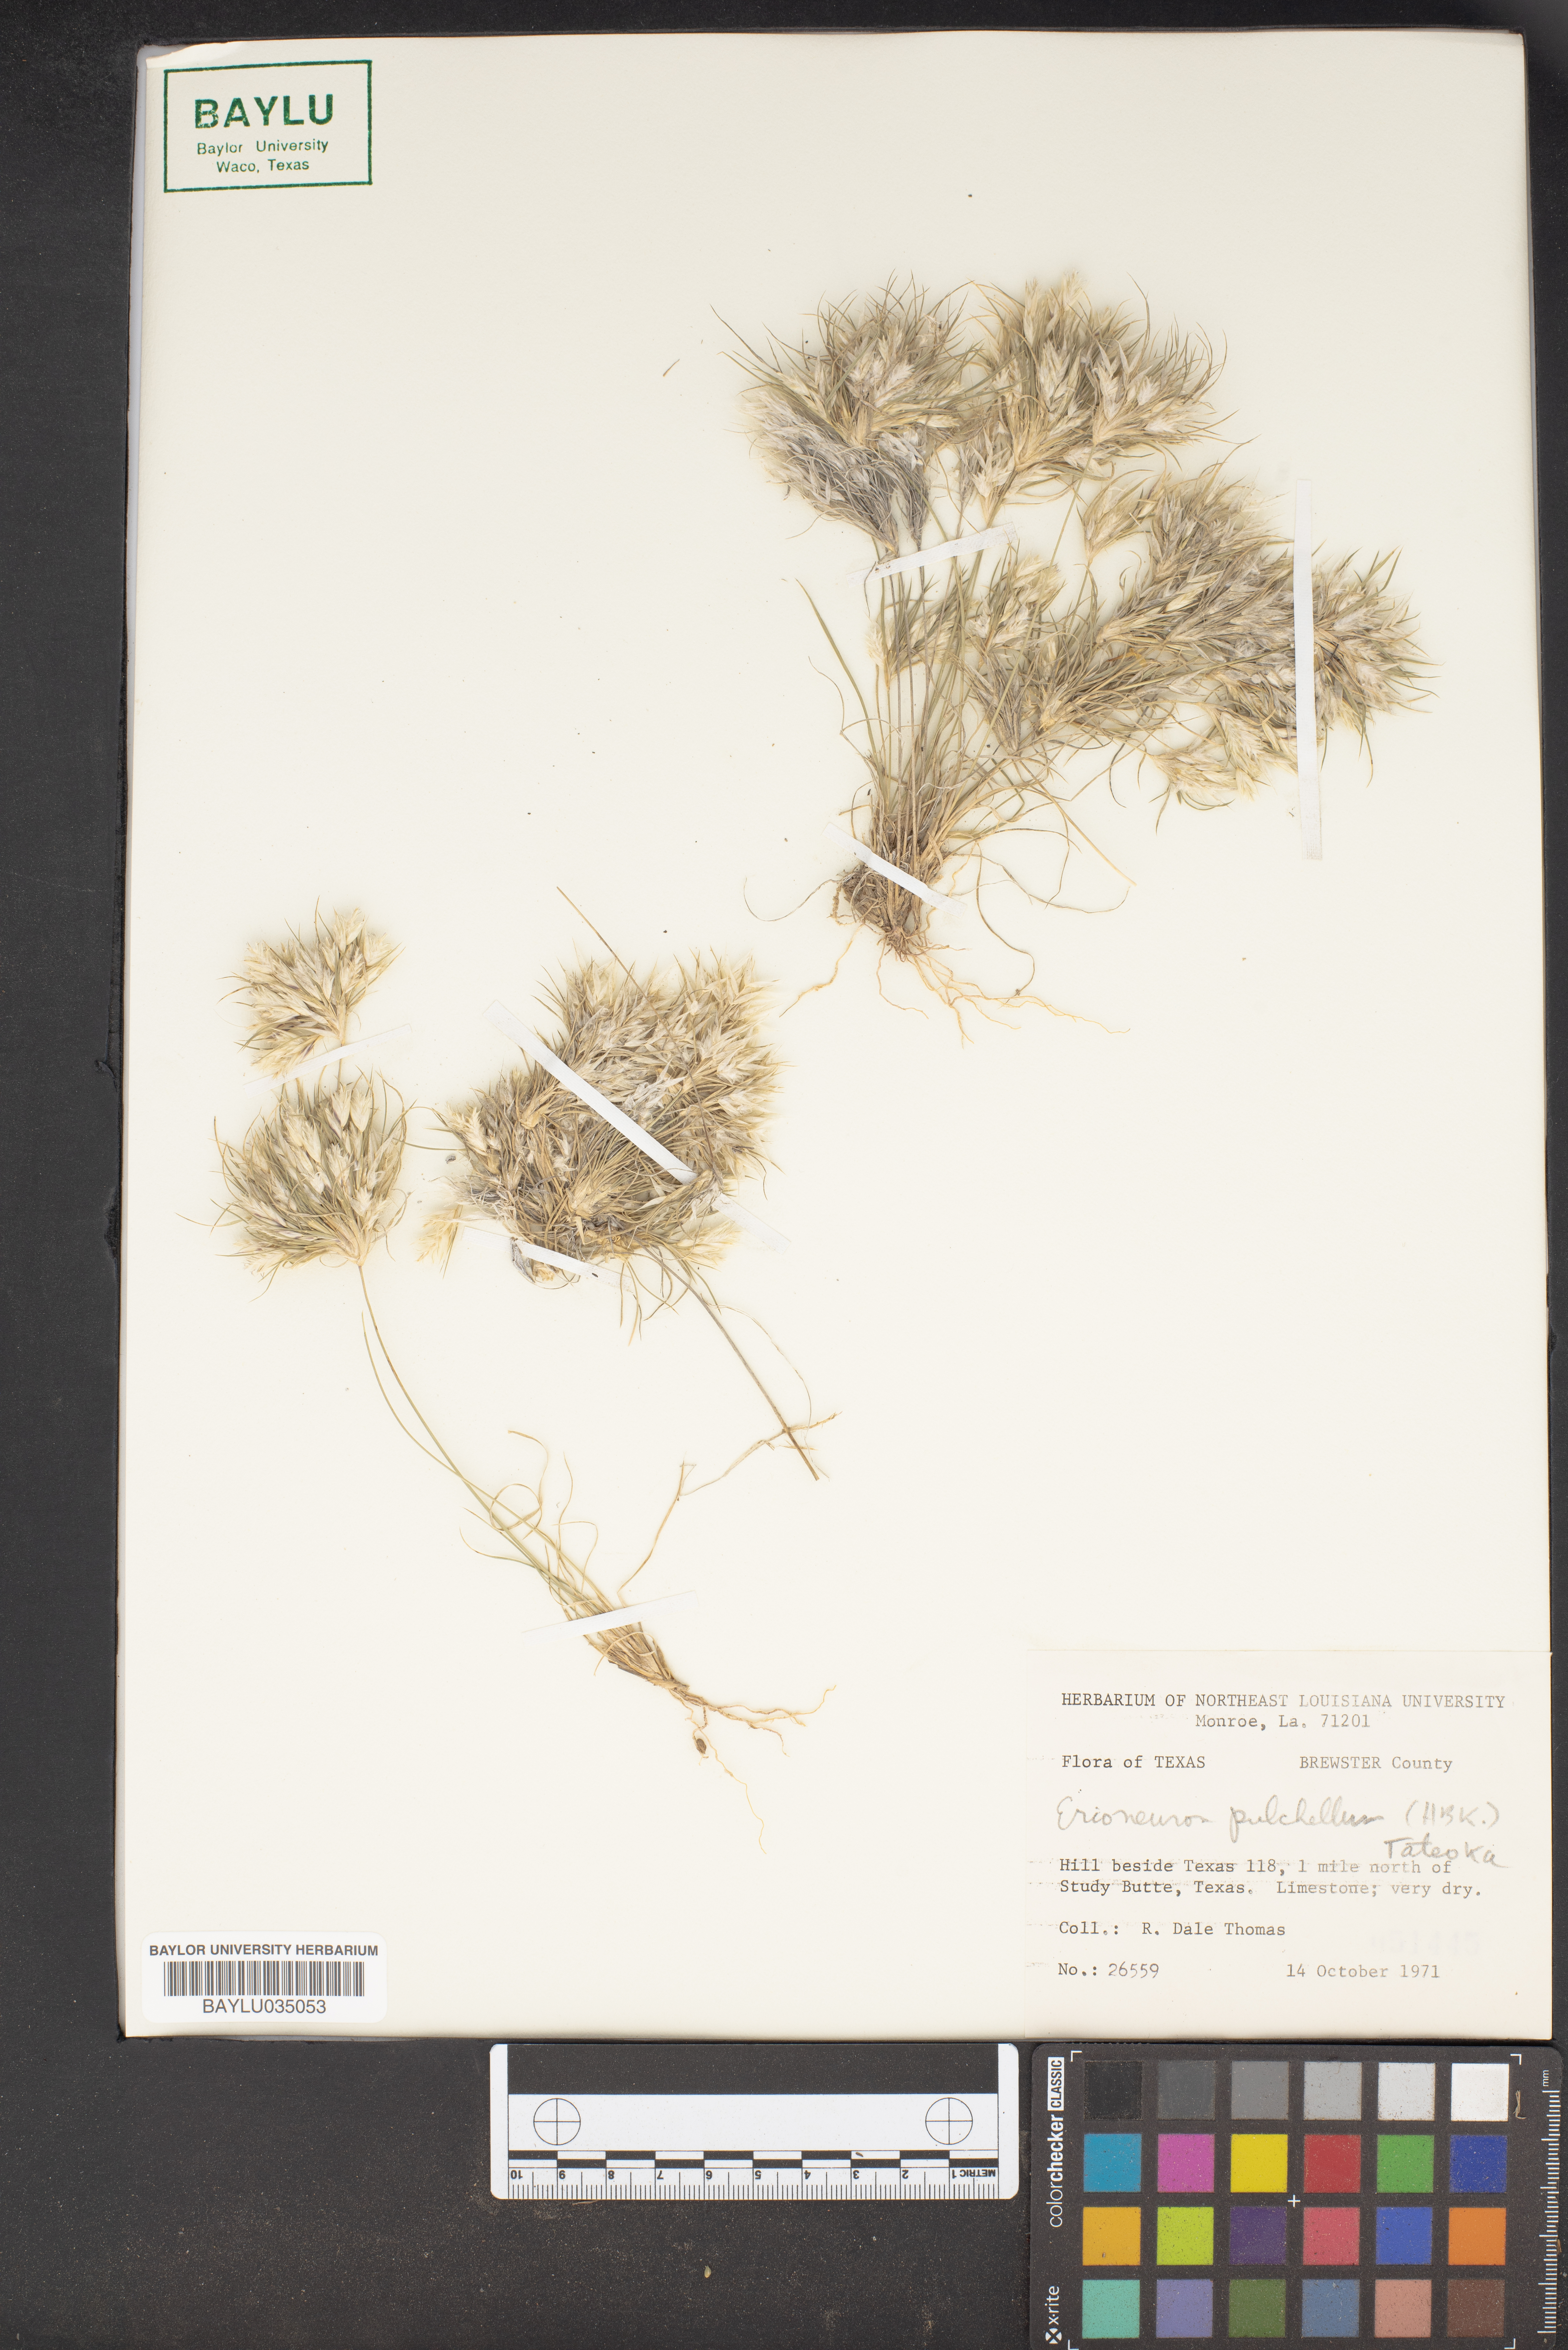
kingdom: Plantae
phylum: Tracheophyta
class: Liliopsida
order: Poales
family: Poaceae
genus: Munroa
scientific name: Munroa pulchella
